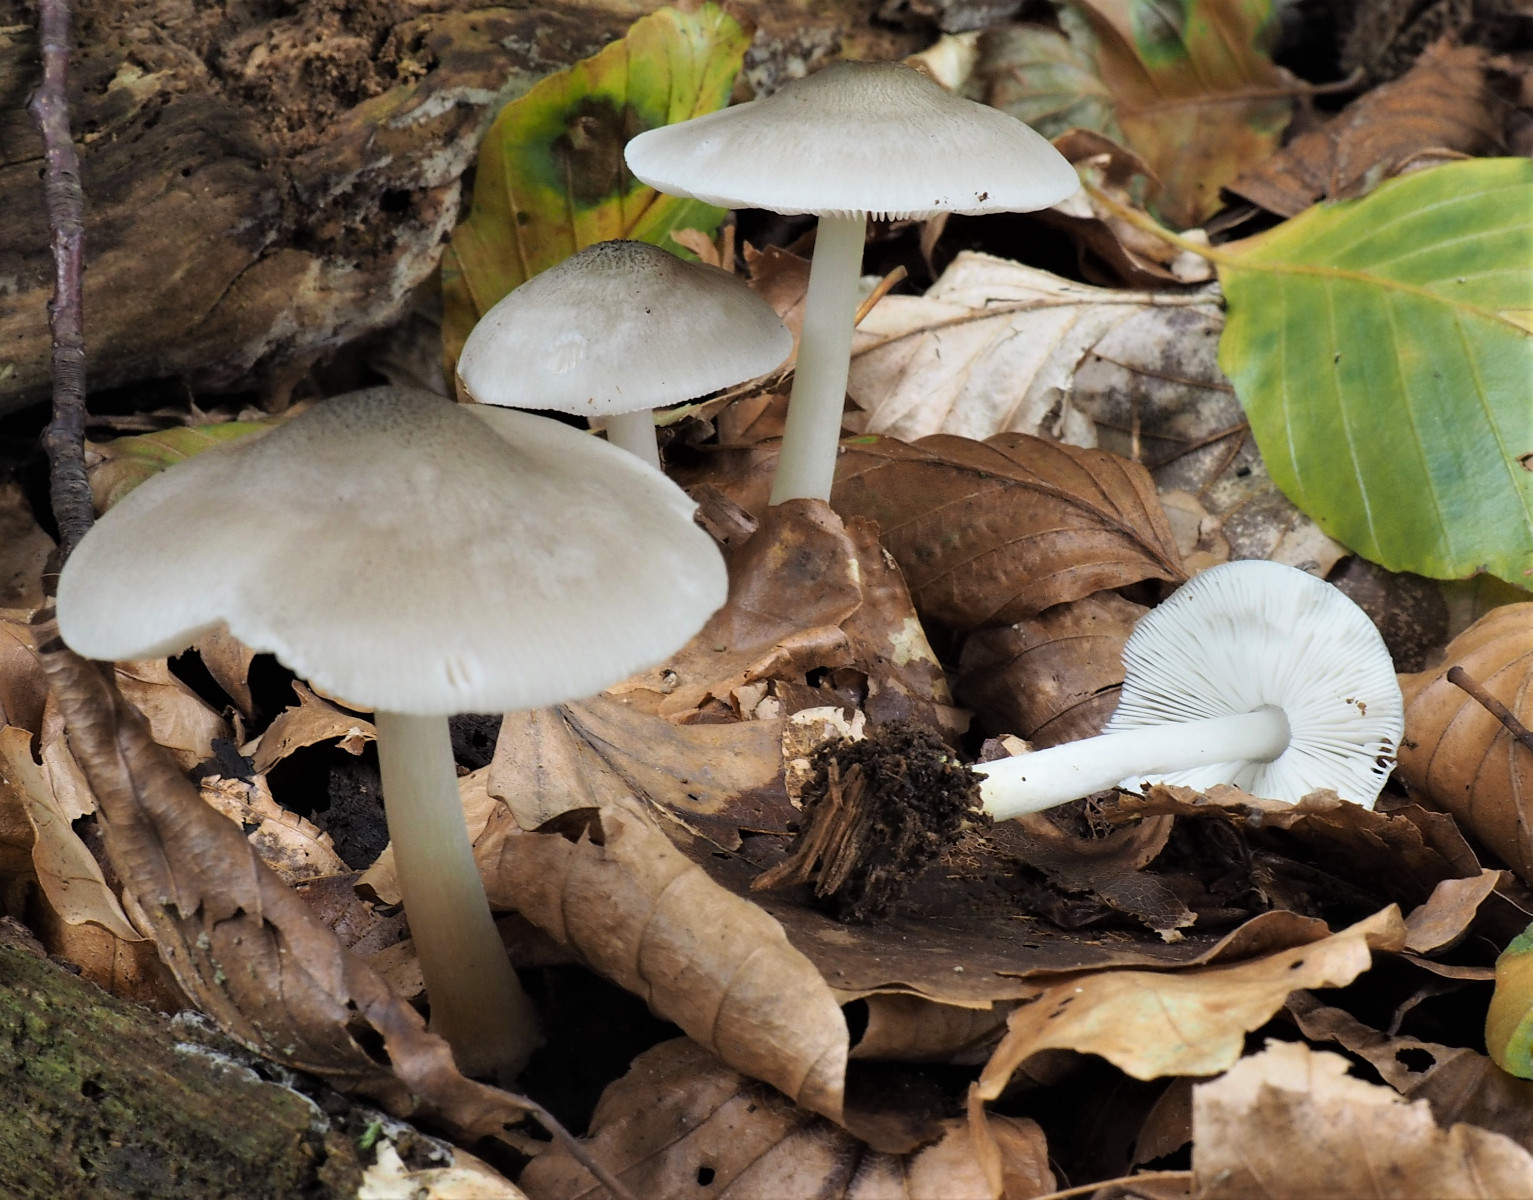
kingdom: Fungi
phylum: Basidiomycota
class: Agaricomycetes
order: Agaricales
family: Pluteaceae
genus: Pluteus
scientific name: Pluteus salicinus
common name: stiv skærmhat
